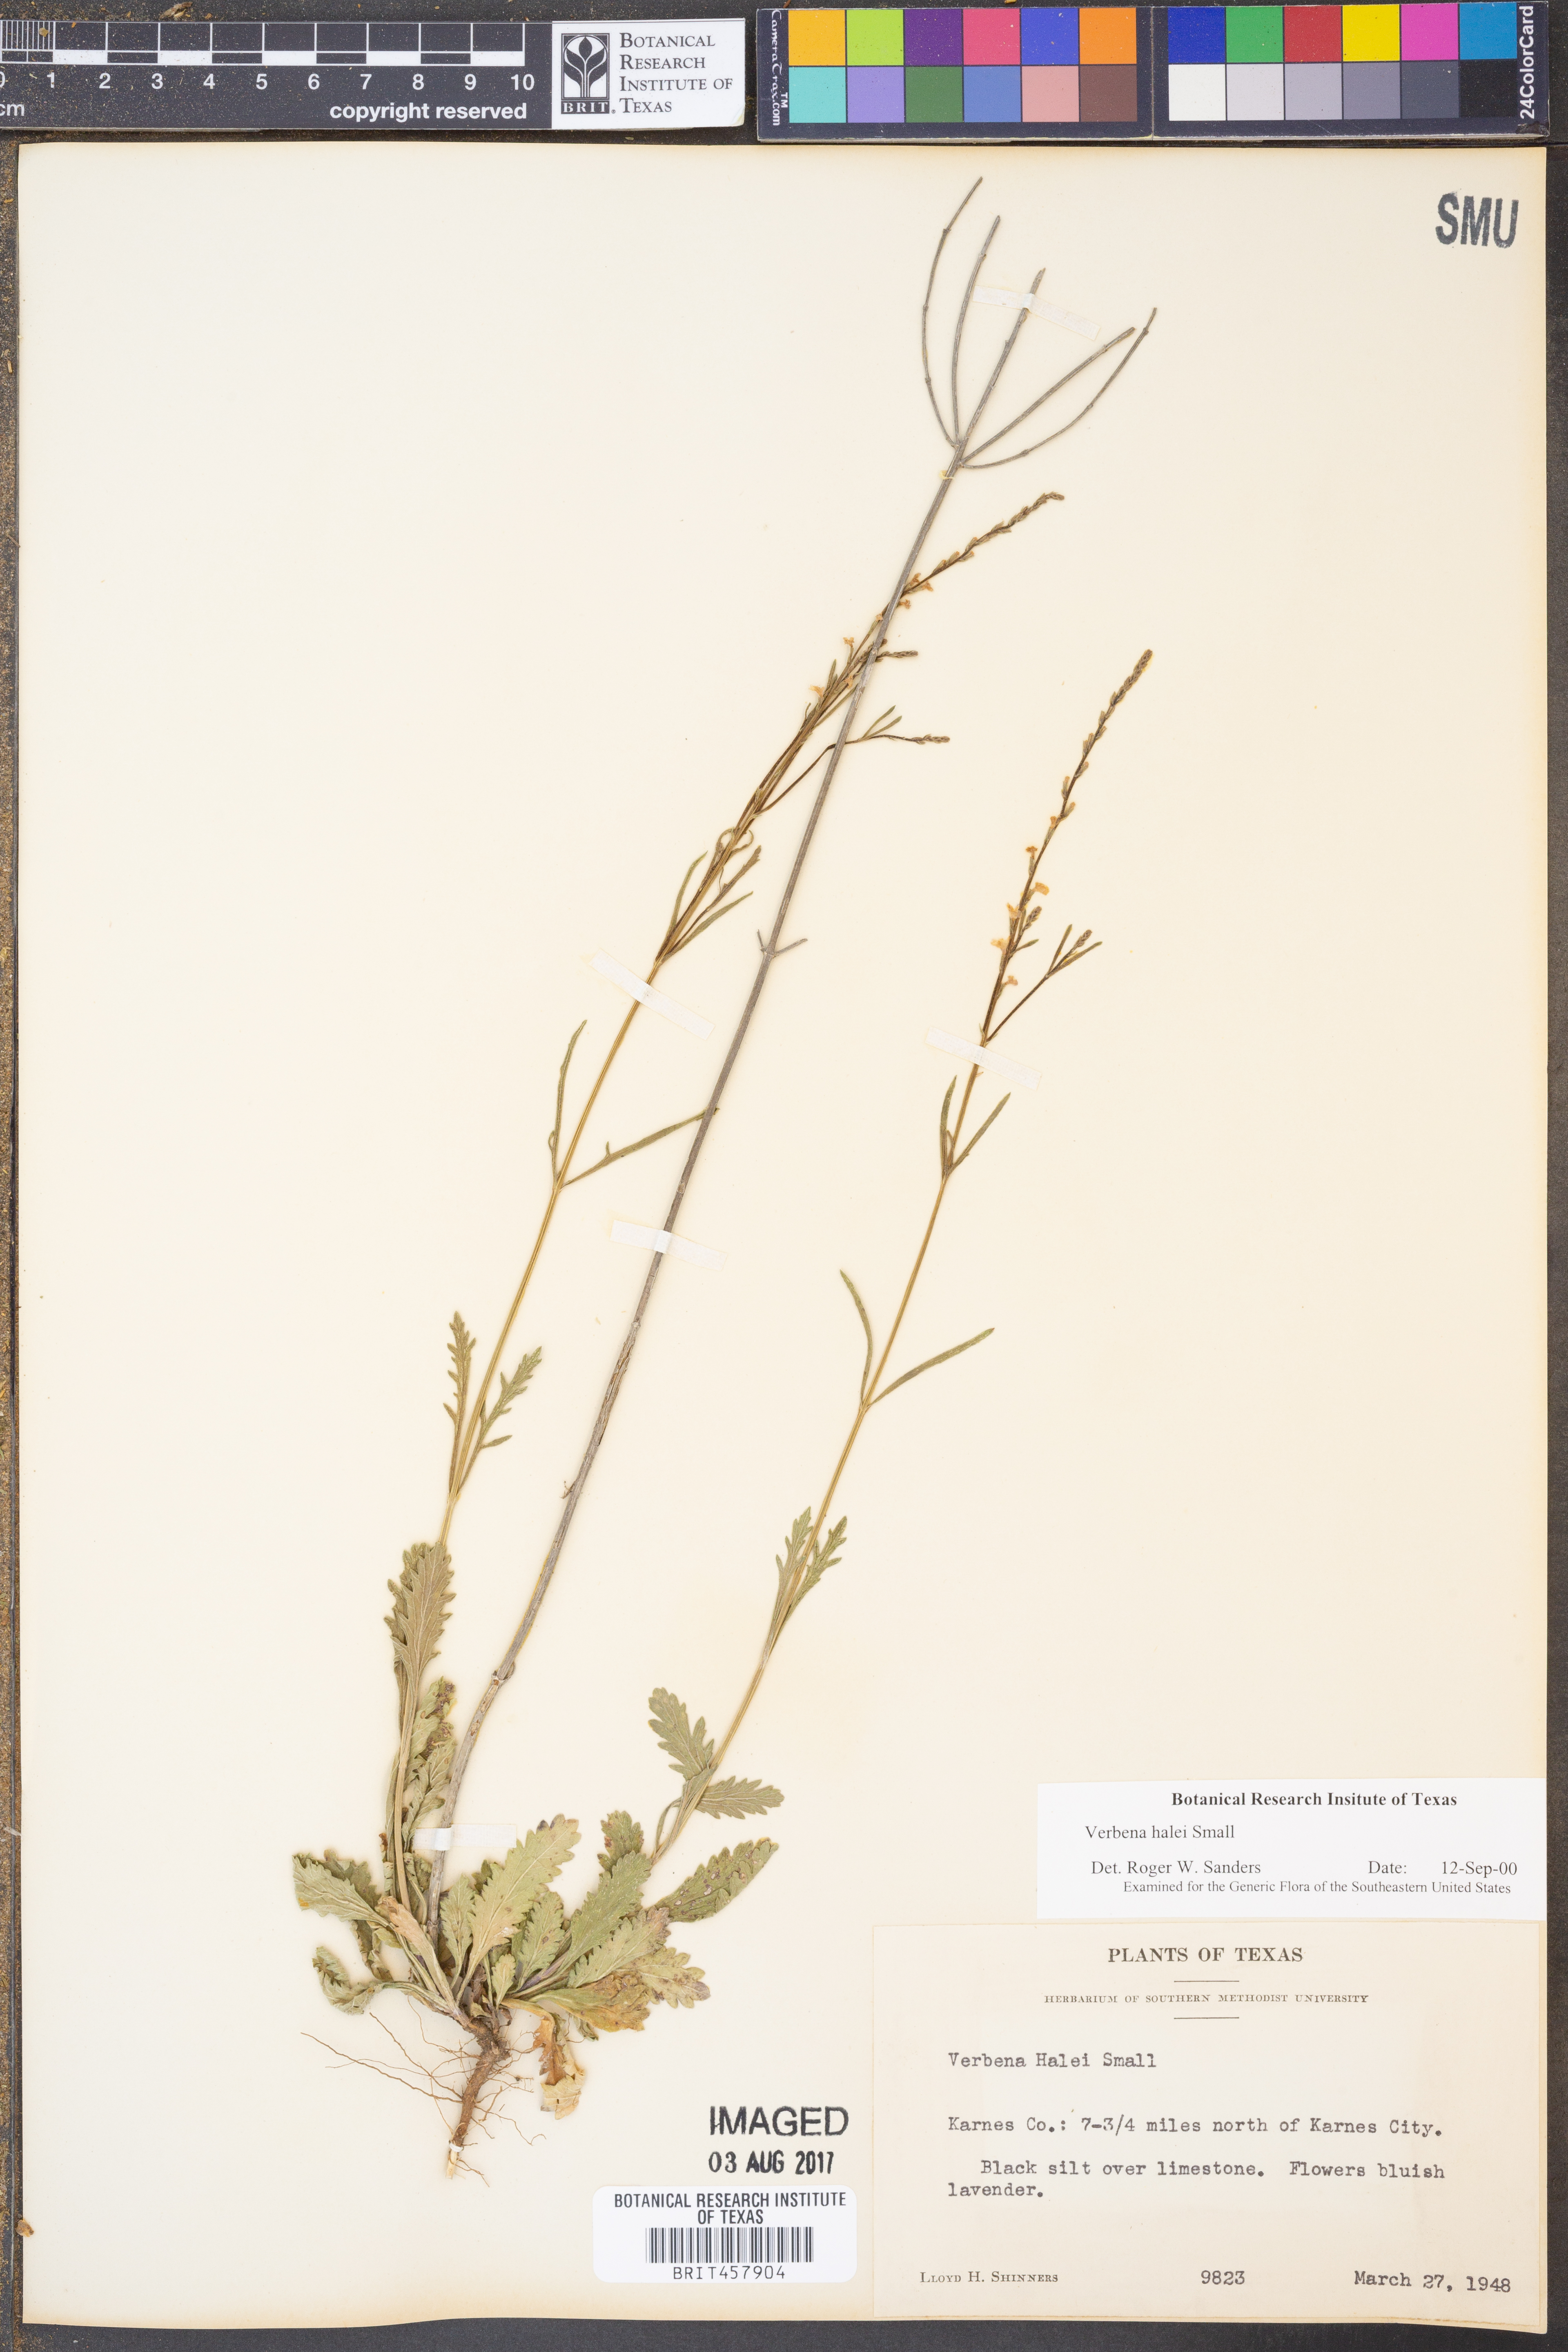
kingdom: Plantae
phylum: Tracheophyta
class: Magnoliopsida
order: Lamiales
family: Verbenaceae
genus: Verbena
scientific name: Verbena halei
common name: Texas vervain
